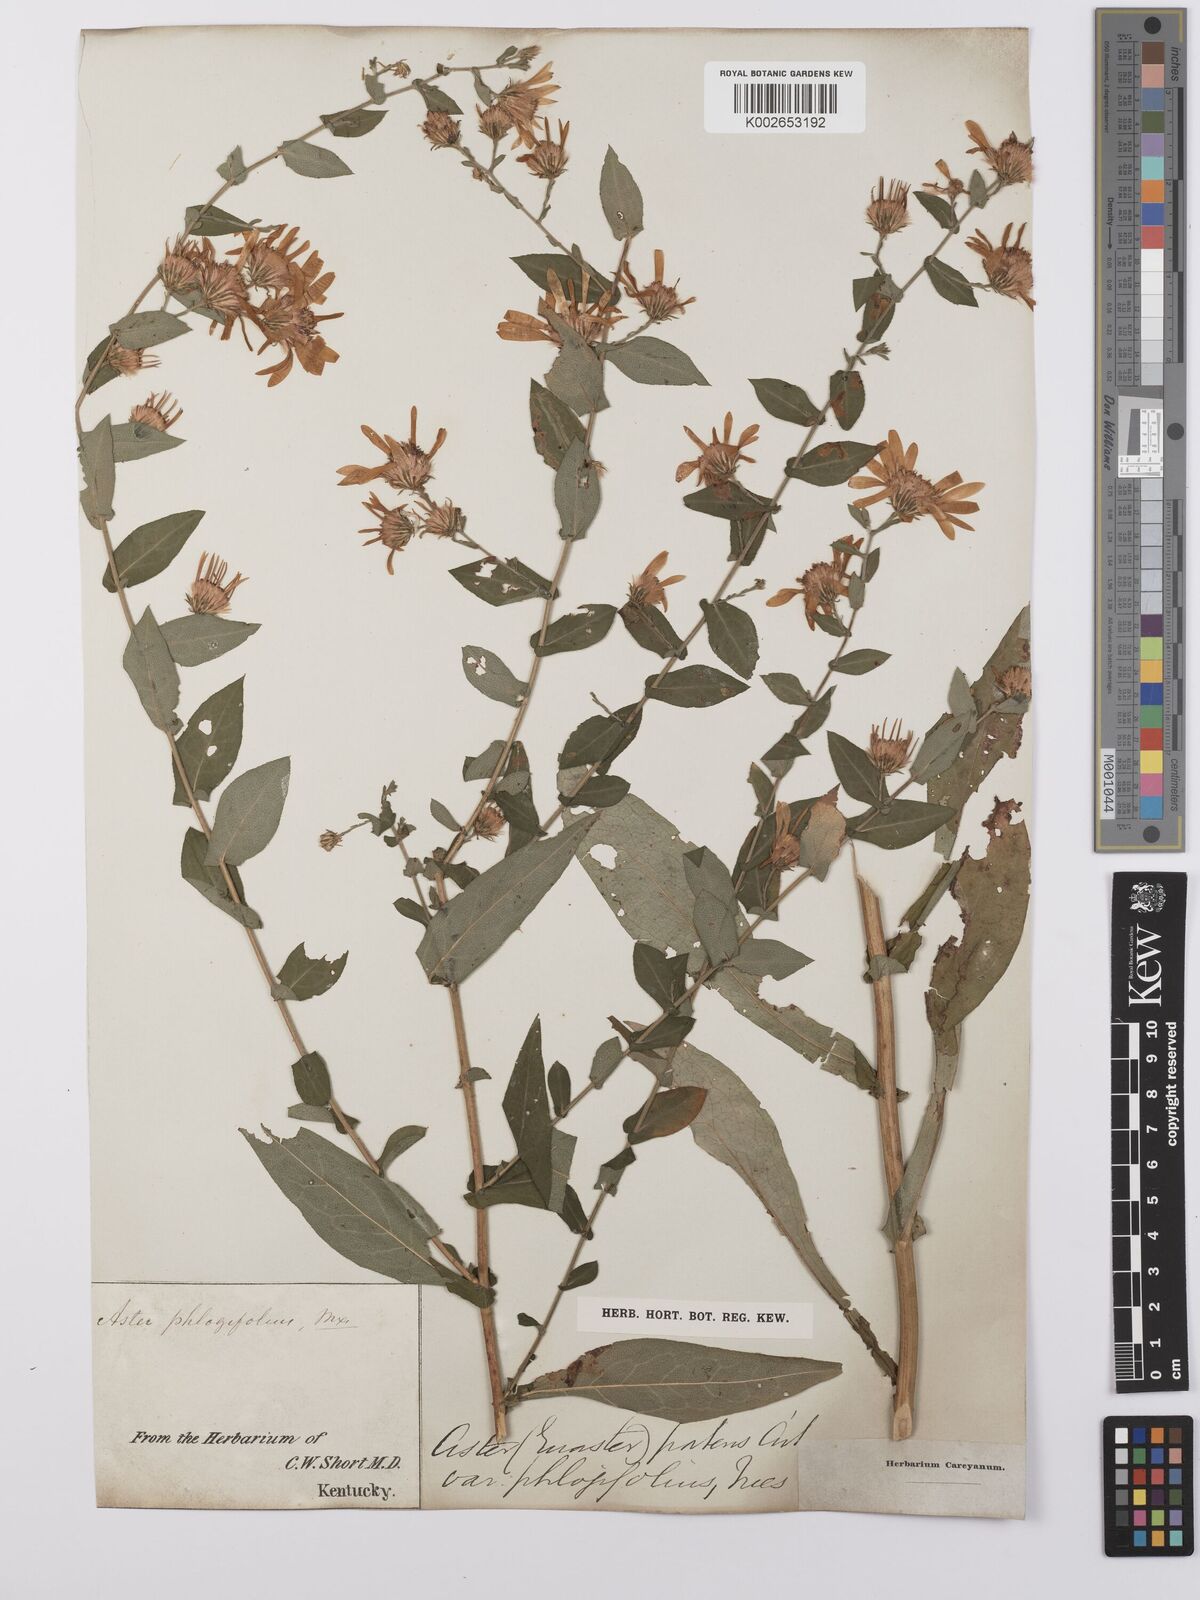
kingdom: Plantae
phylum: Tracheophyta
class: Magnoliopsida
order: Asterales
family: Asteraceae
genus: Symphyotrichum
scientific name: Symphyotrichum patens
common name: Late purple aster
